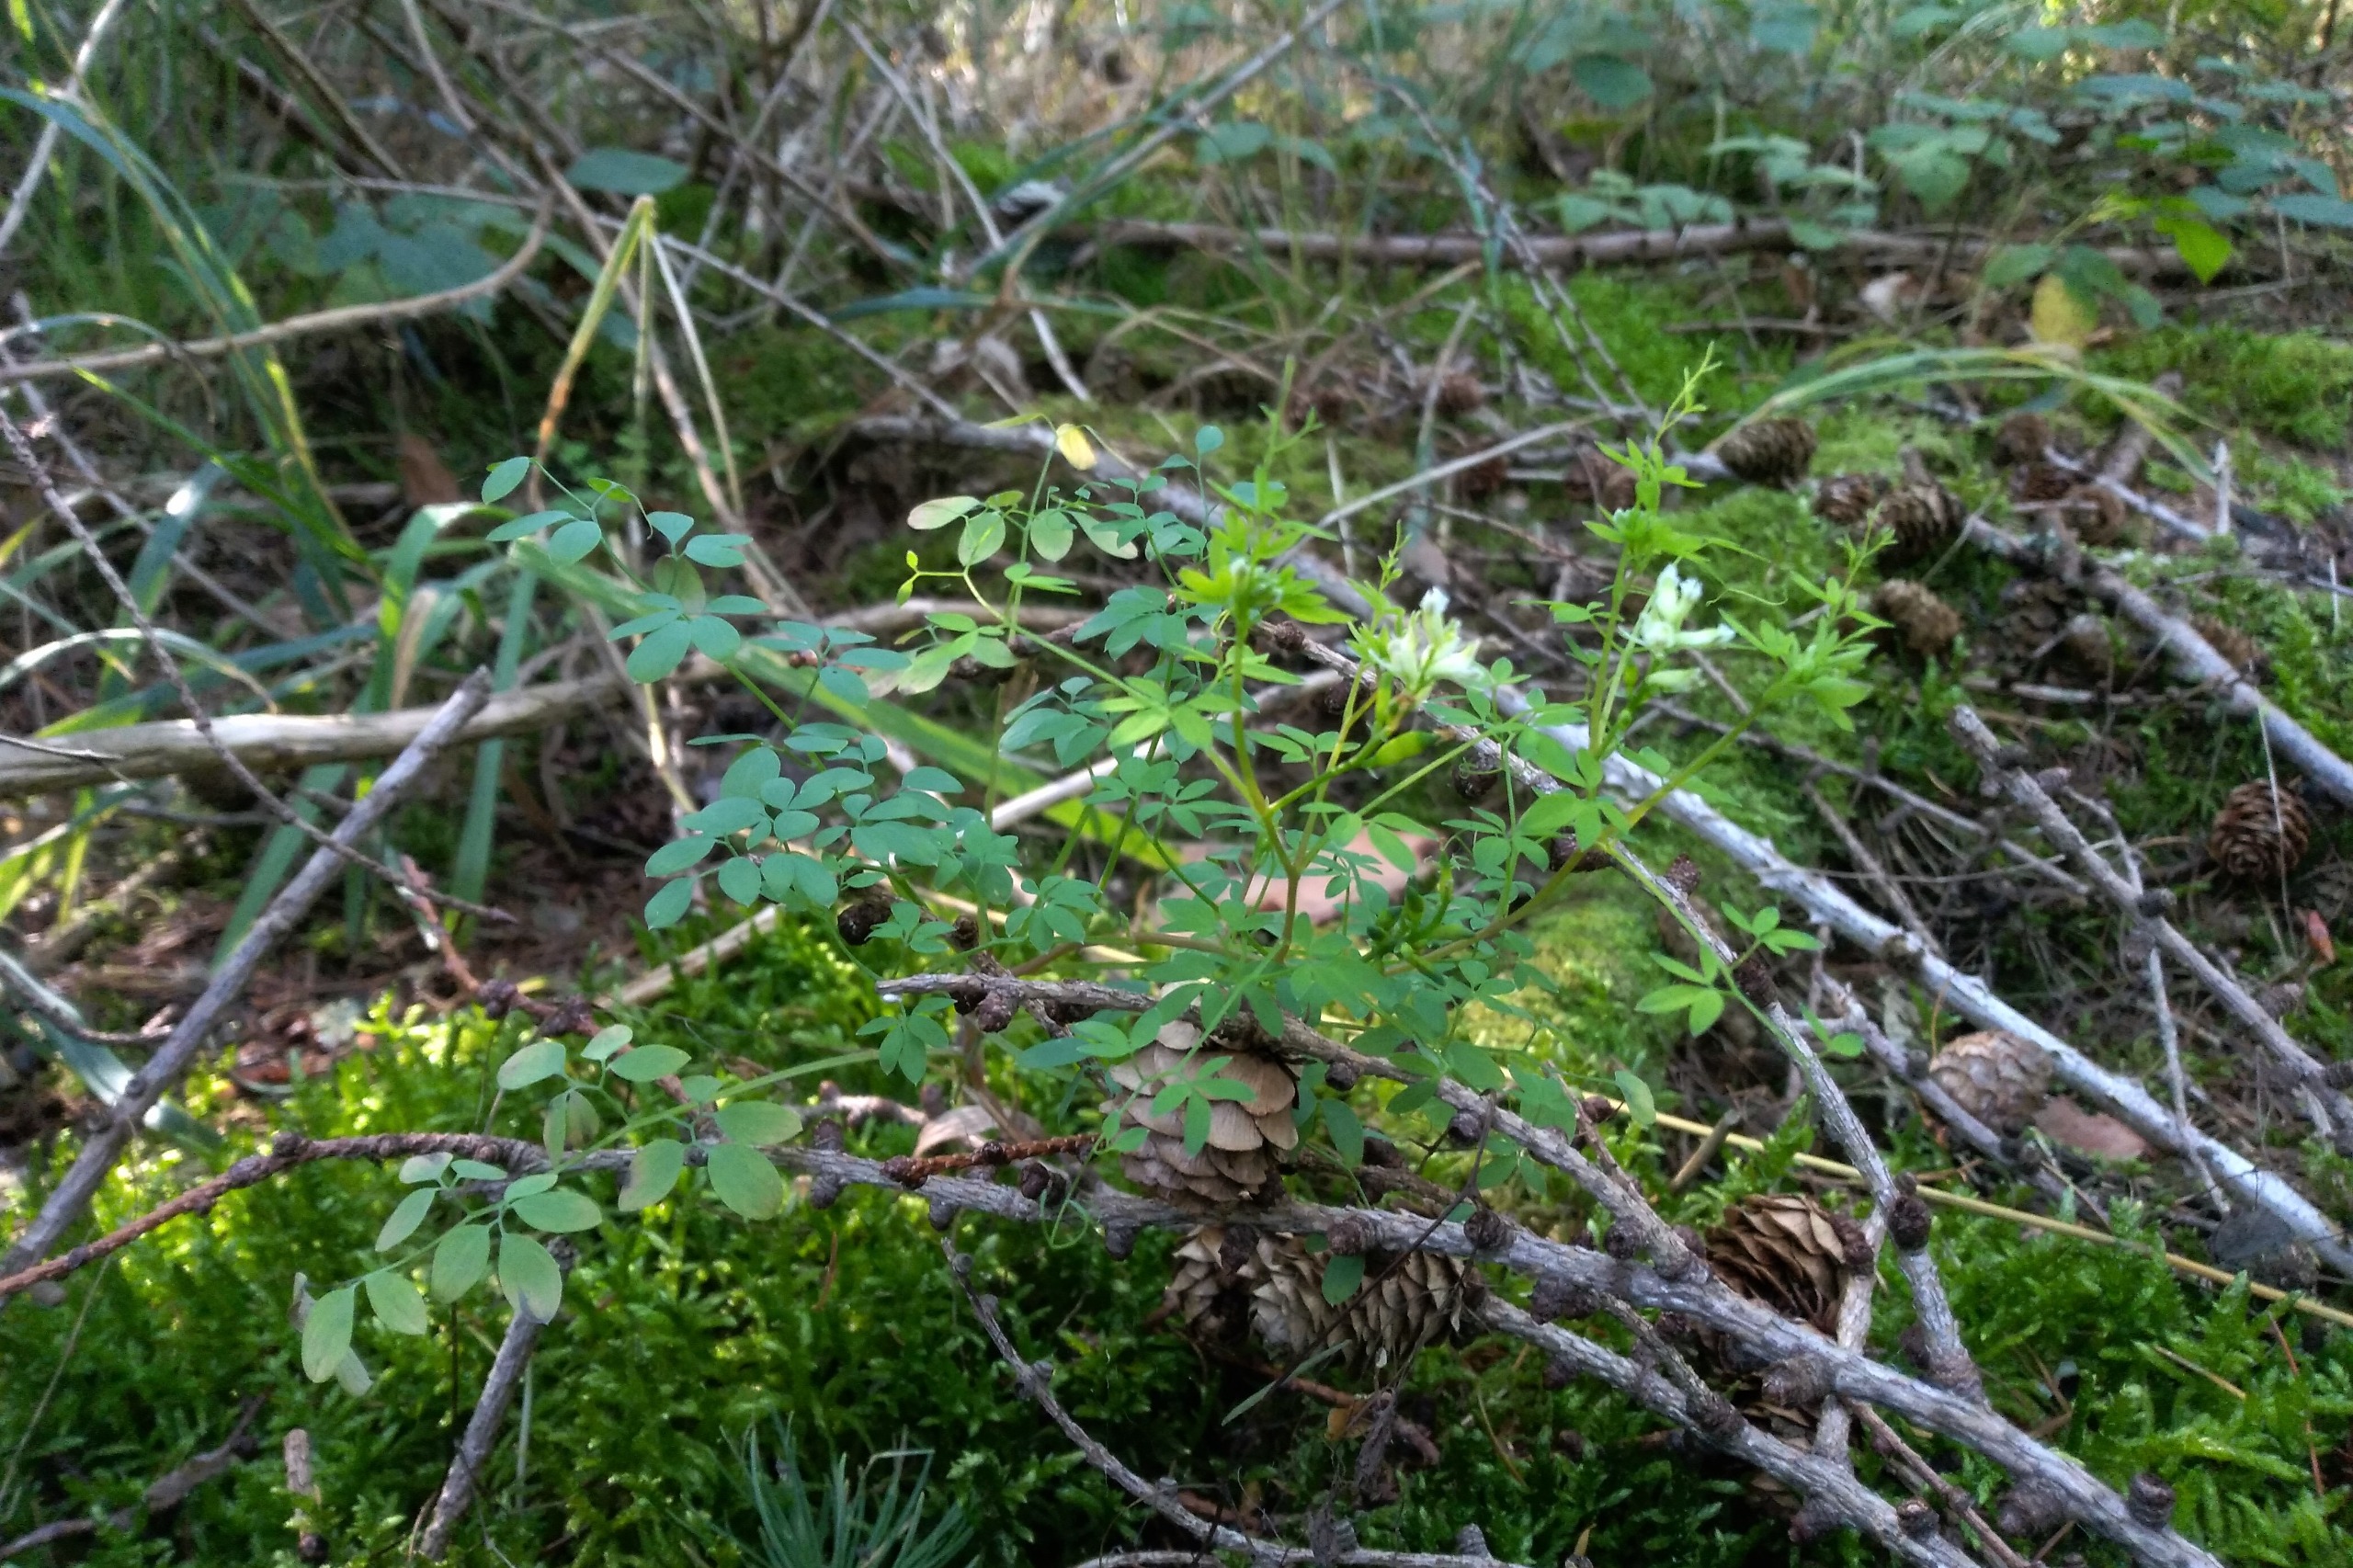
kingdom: Plantae
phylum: Tracheophyta
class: Magnoliopsida
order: Ranunculales
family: Papaveraceae
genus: Ceratocapnos
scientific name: Ceratocapnos claviculata
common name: Klatrende lærkespore
